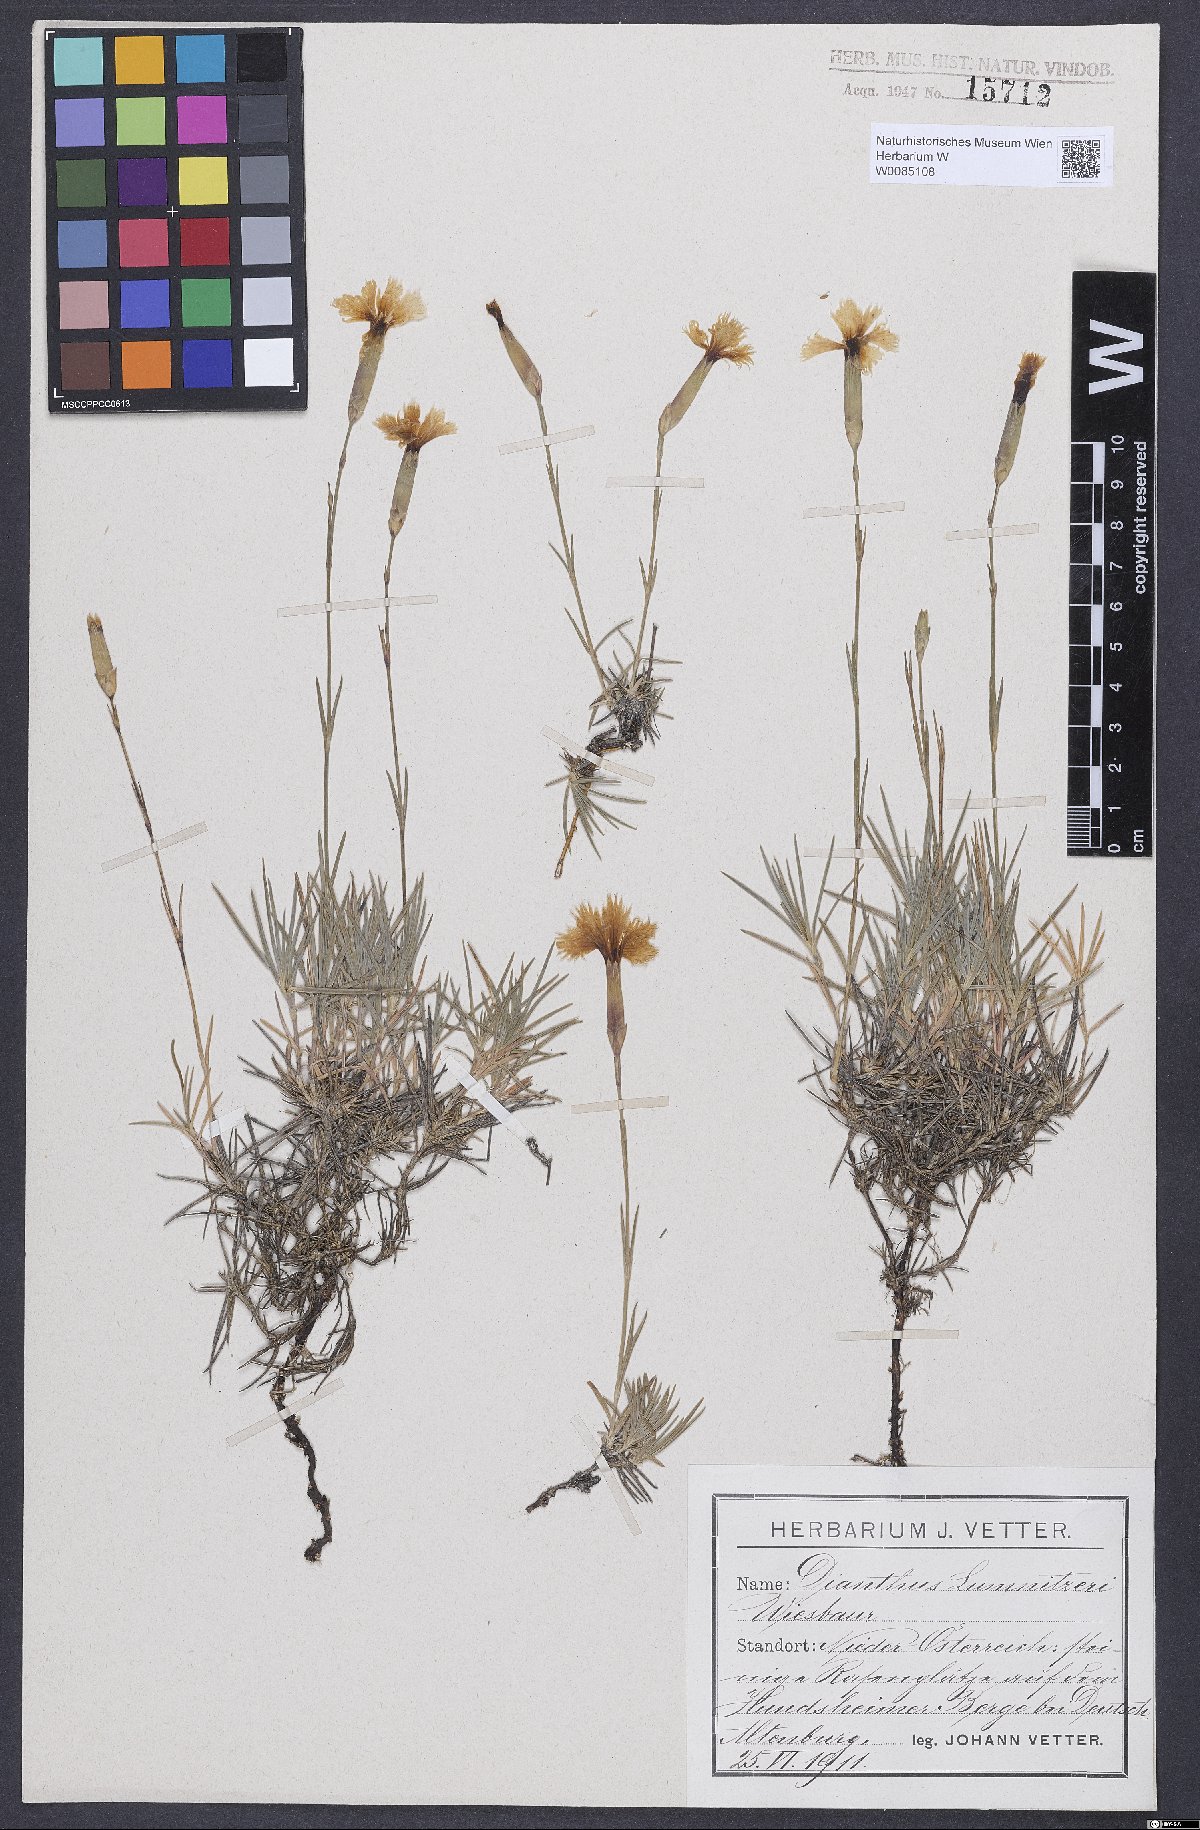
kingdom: Plantae
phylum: Tracheophyta
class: Magnoliopsida
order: Caryophyllales
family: Caryophyllaceae
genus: Dianthus
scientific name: Dianthus praecox
